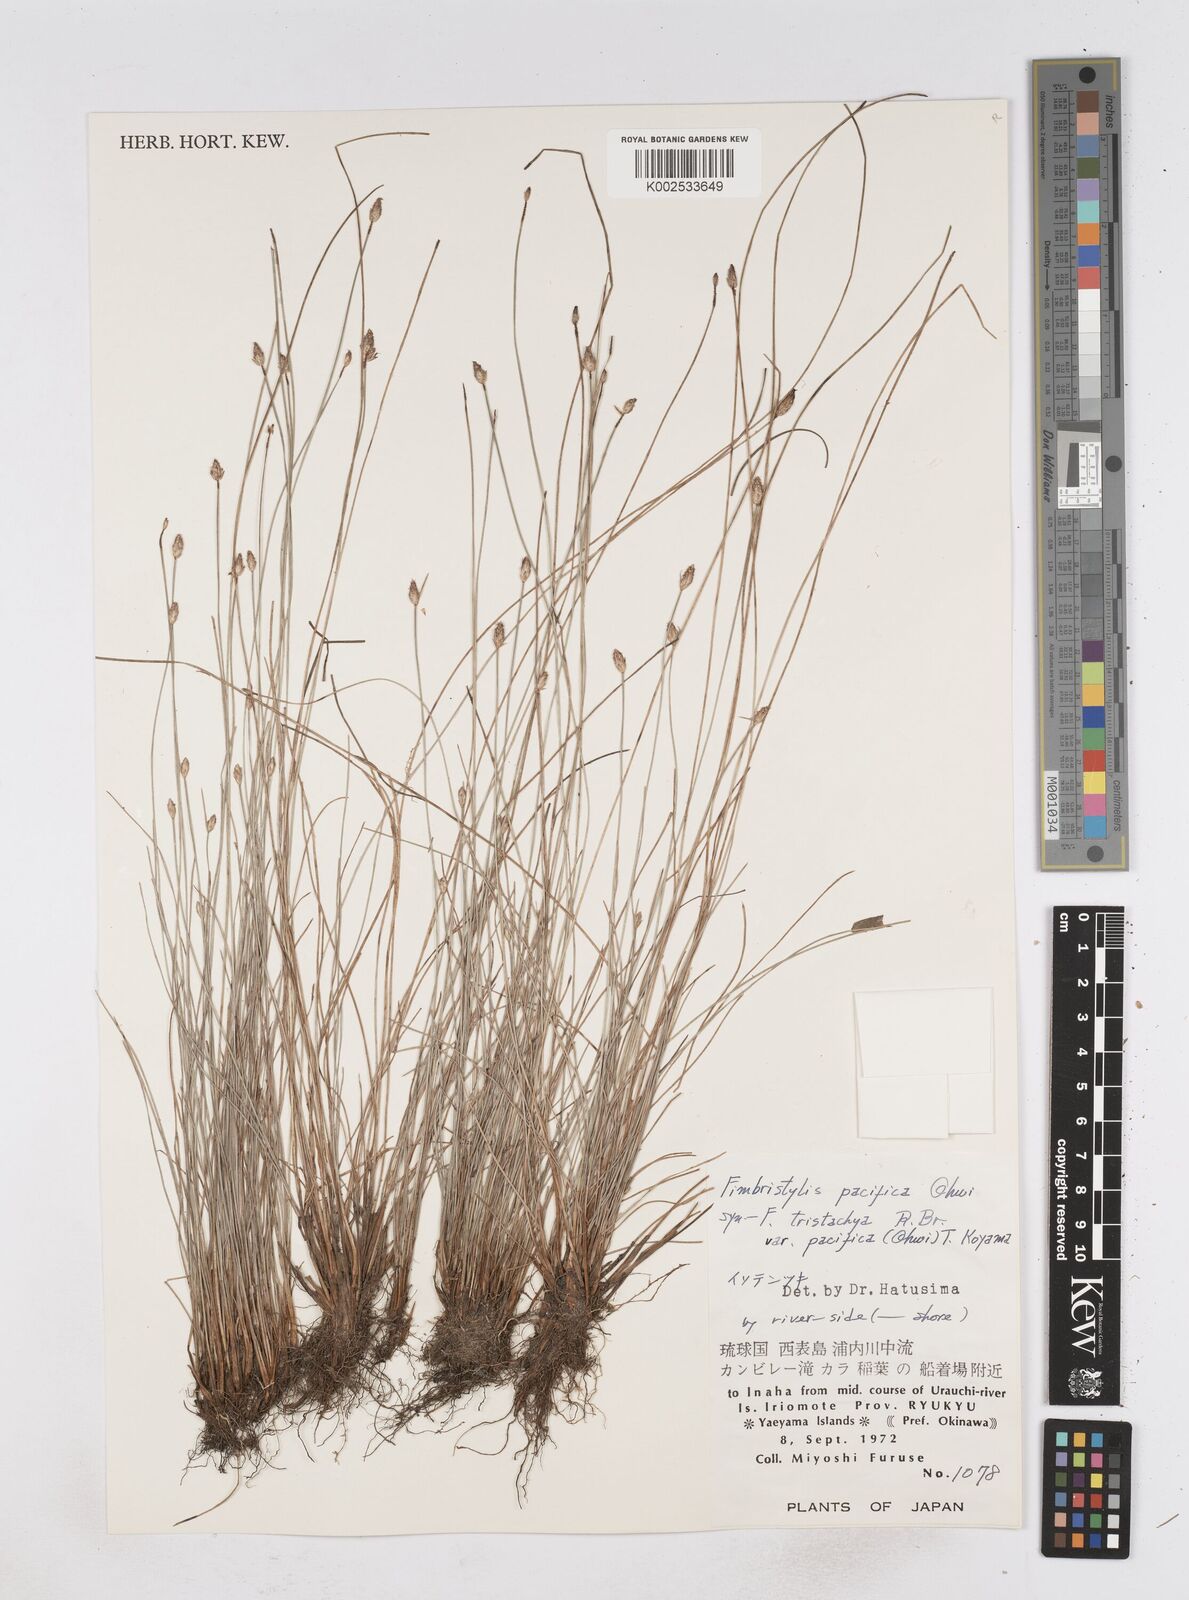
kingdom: Plantae
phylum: Tracheophyta
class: Liliopsida
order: Poales
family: Cyperaceae
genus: Fimbristylis
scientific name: Fimbristylis tristachya
